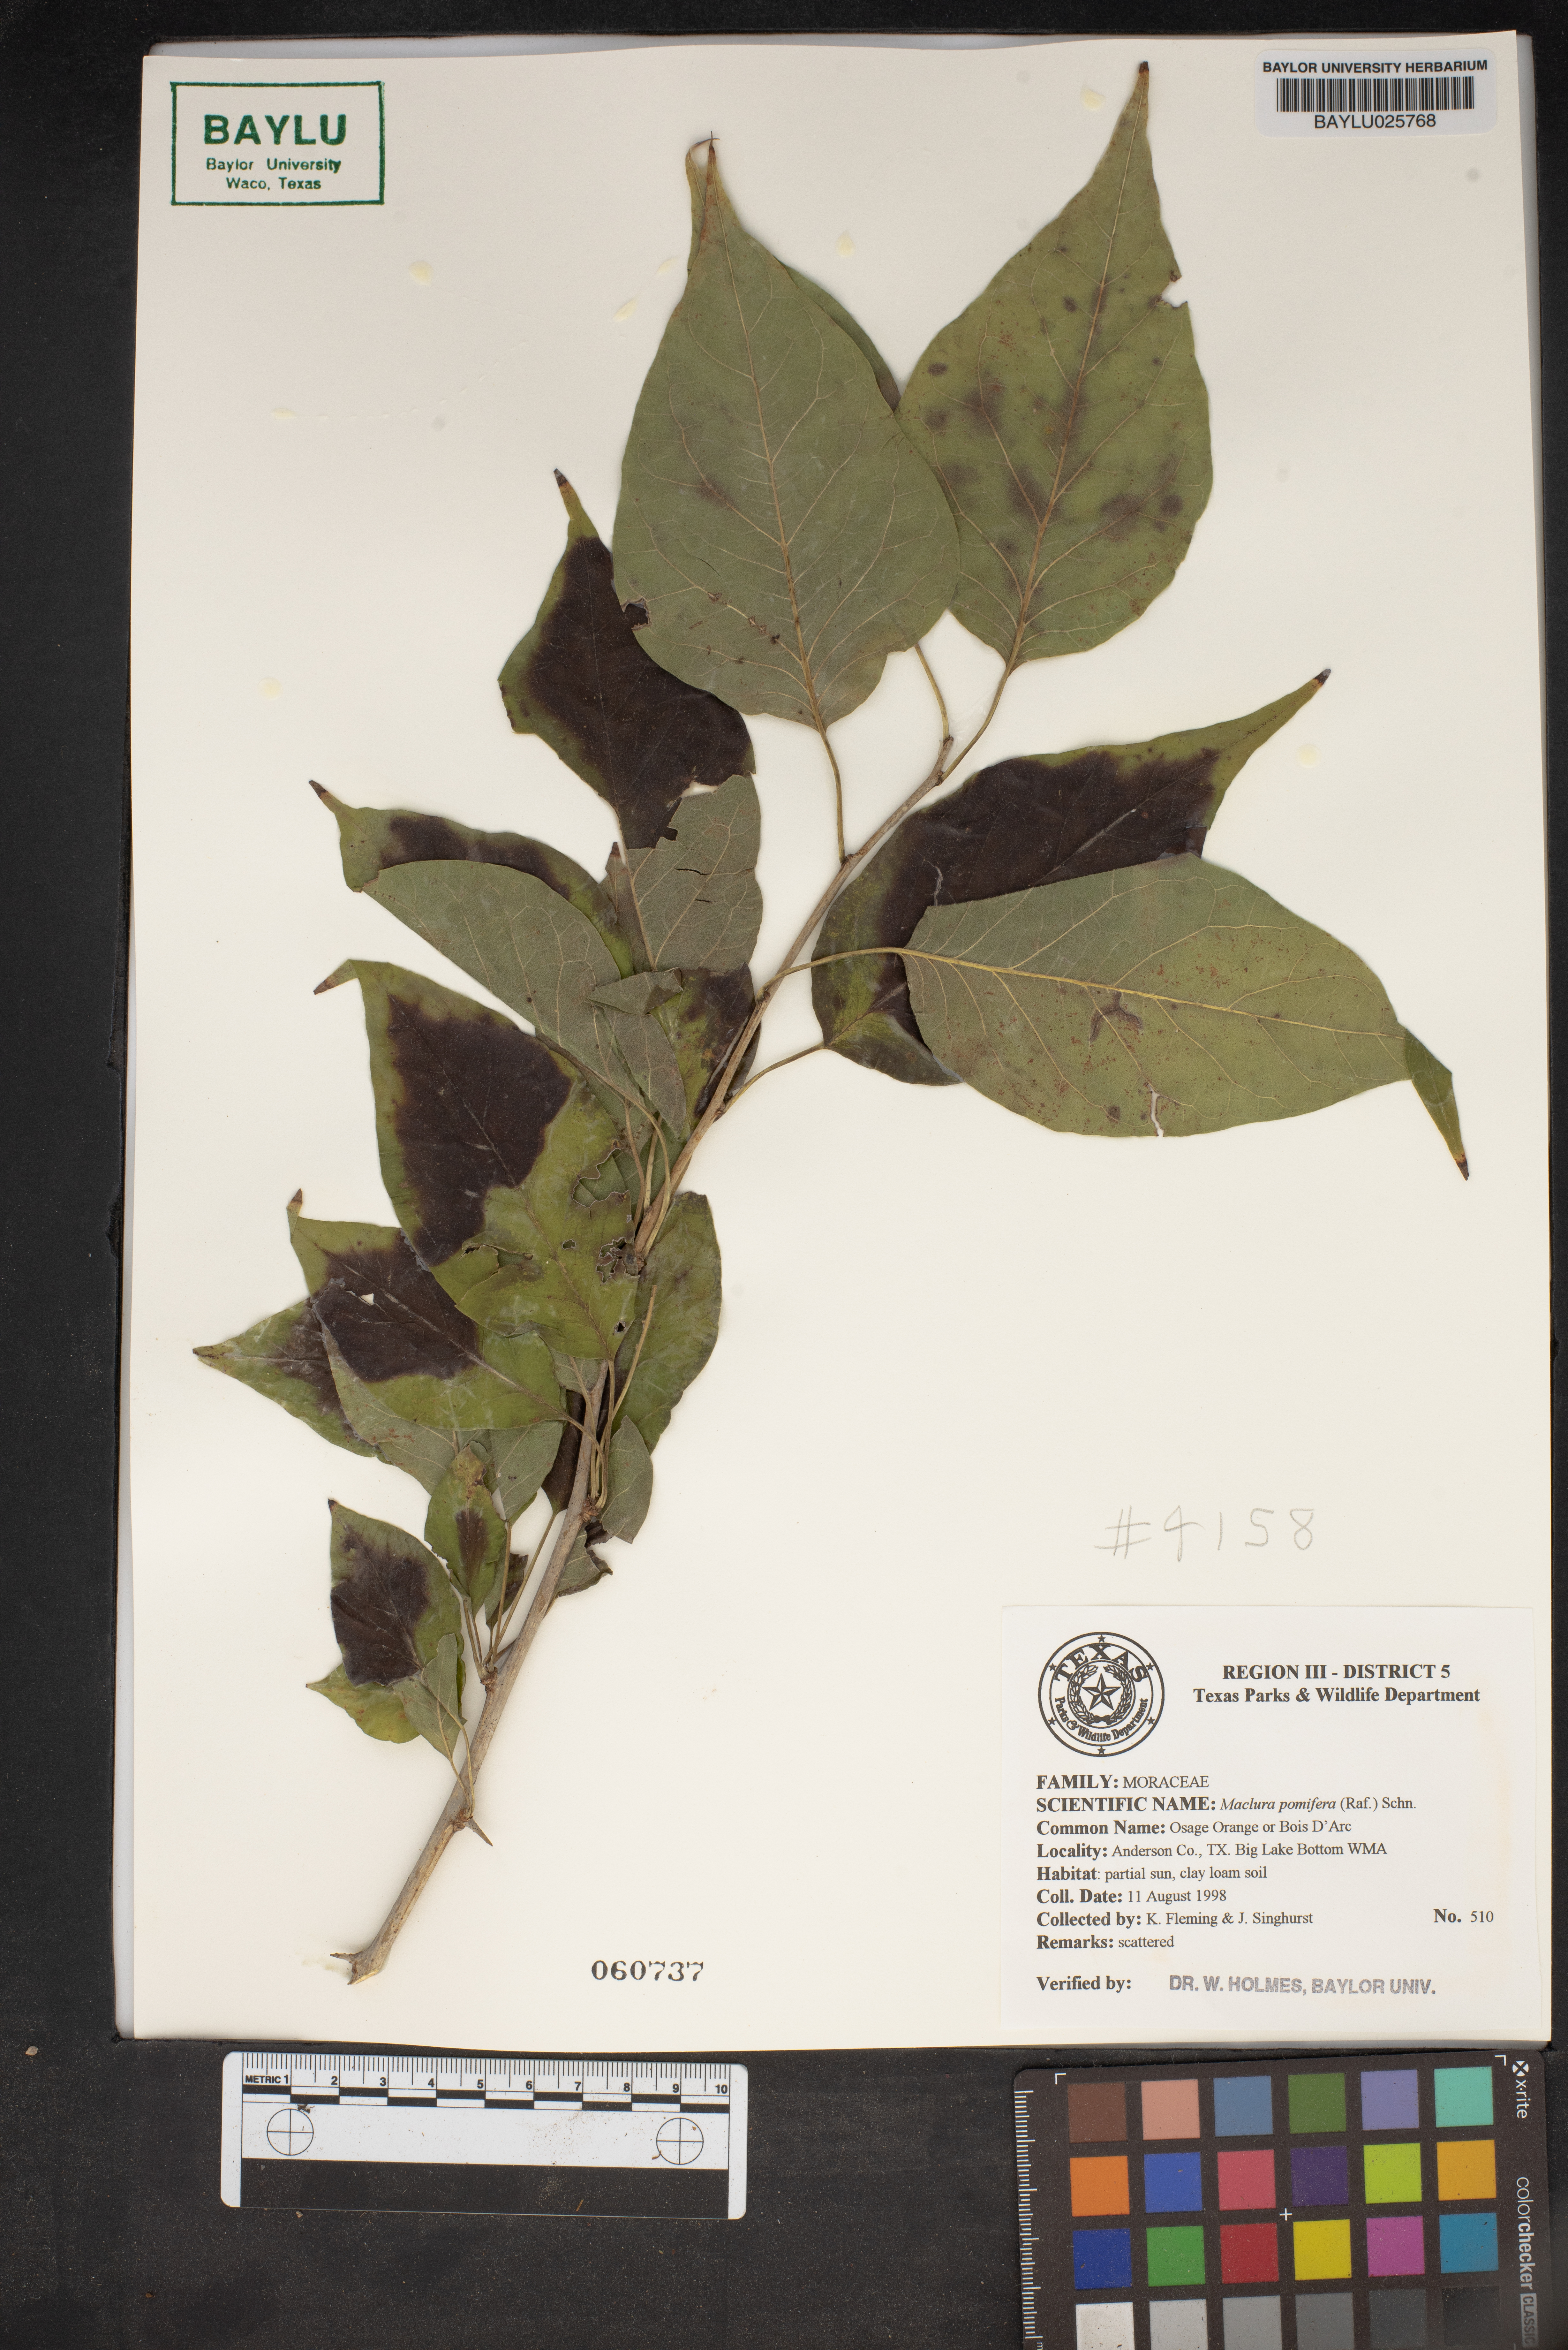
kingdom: Plantae
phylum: Tracheophyta
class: Magnoliopsida
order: Rosales
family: Moraceae
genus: Maclura
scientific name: Maclura pomifera
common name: Osage-orange
